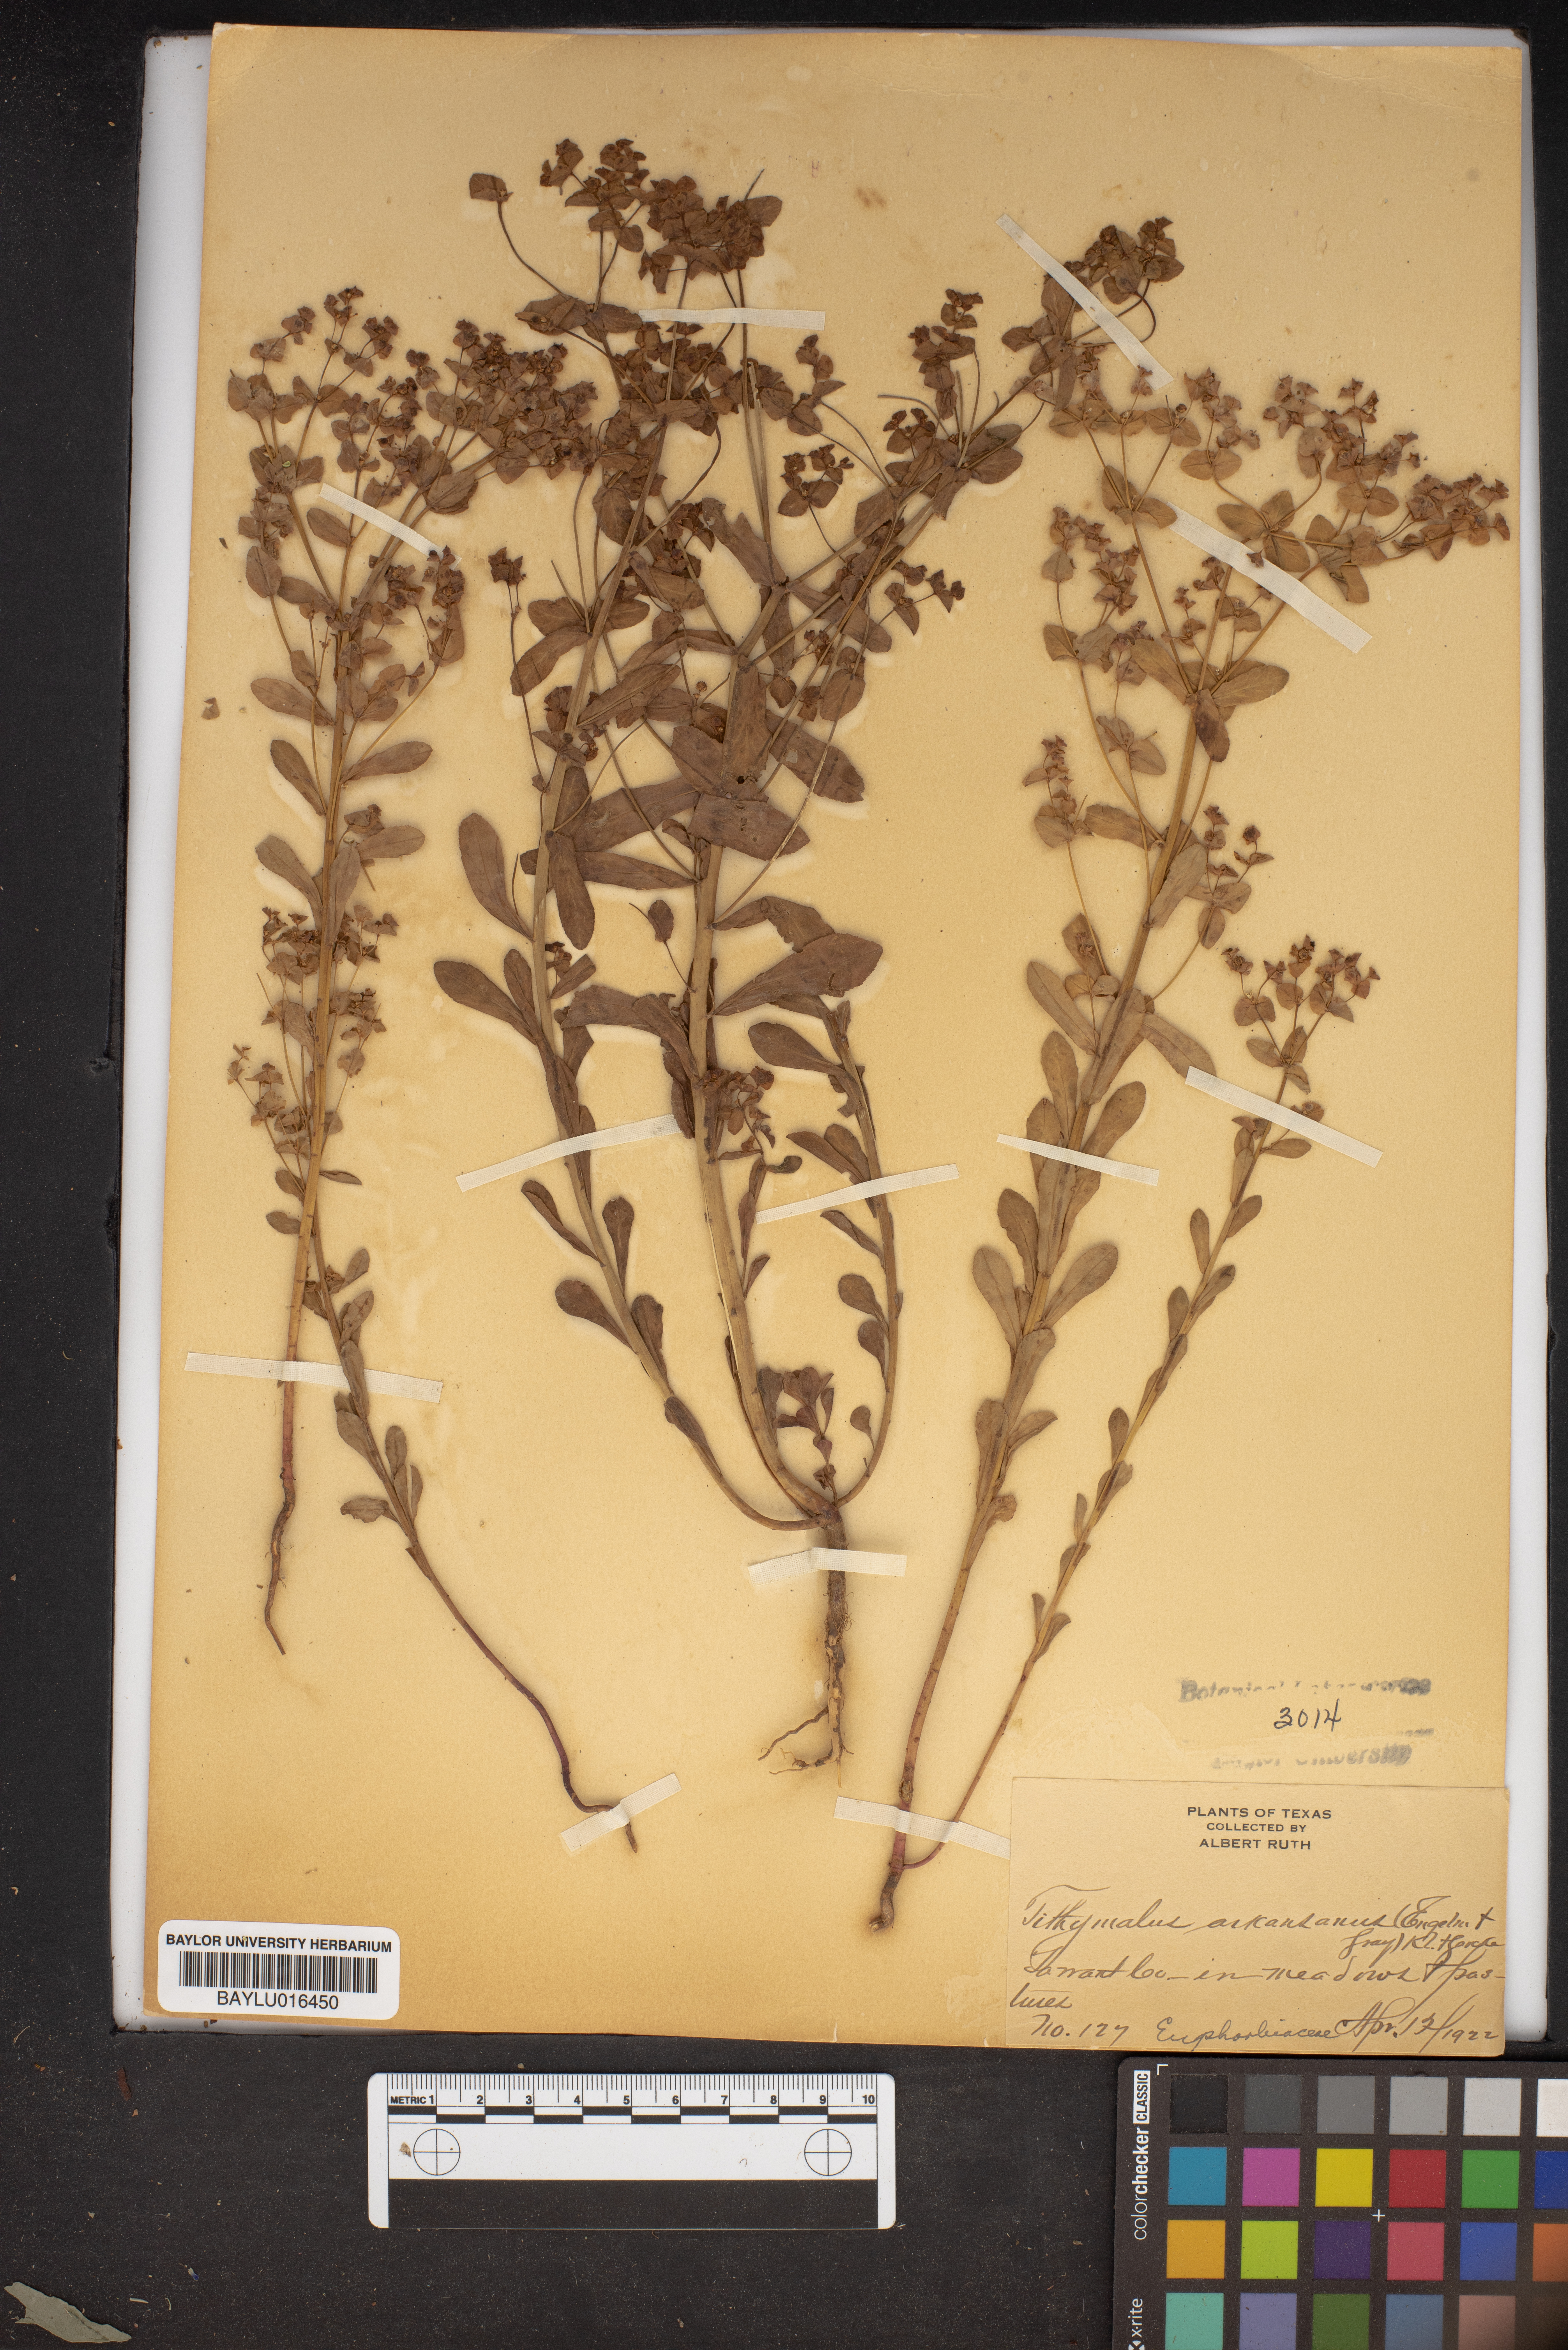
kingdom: Plantae
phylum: Tracheophyta
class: Magnoliopsida
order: Malpighiales
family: Euphorbiaceae
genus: Euphorbia
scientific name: Euphorbia spathulata
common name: Blunt spurge
